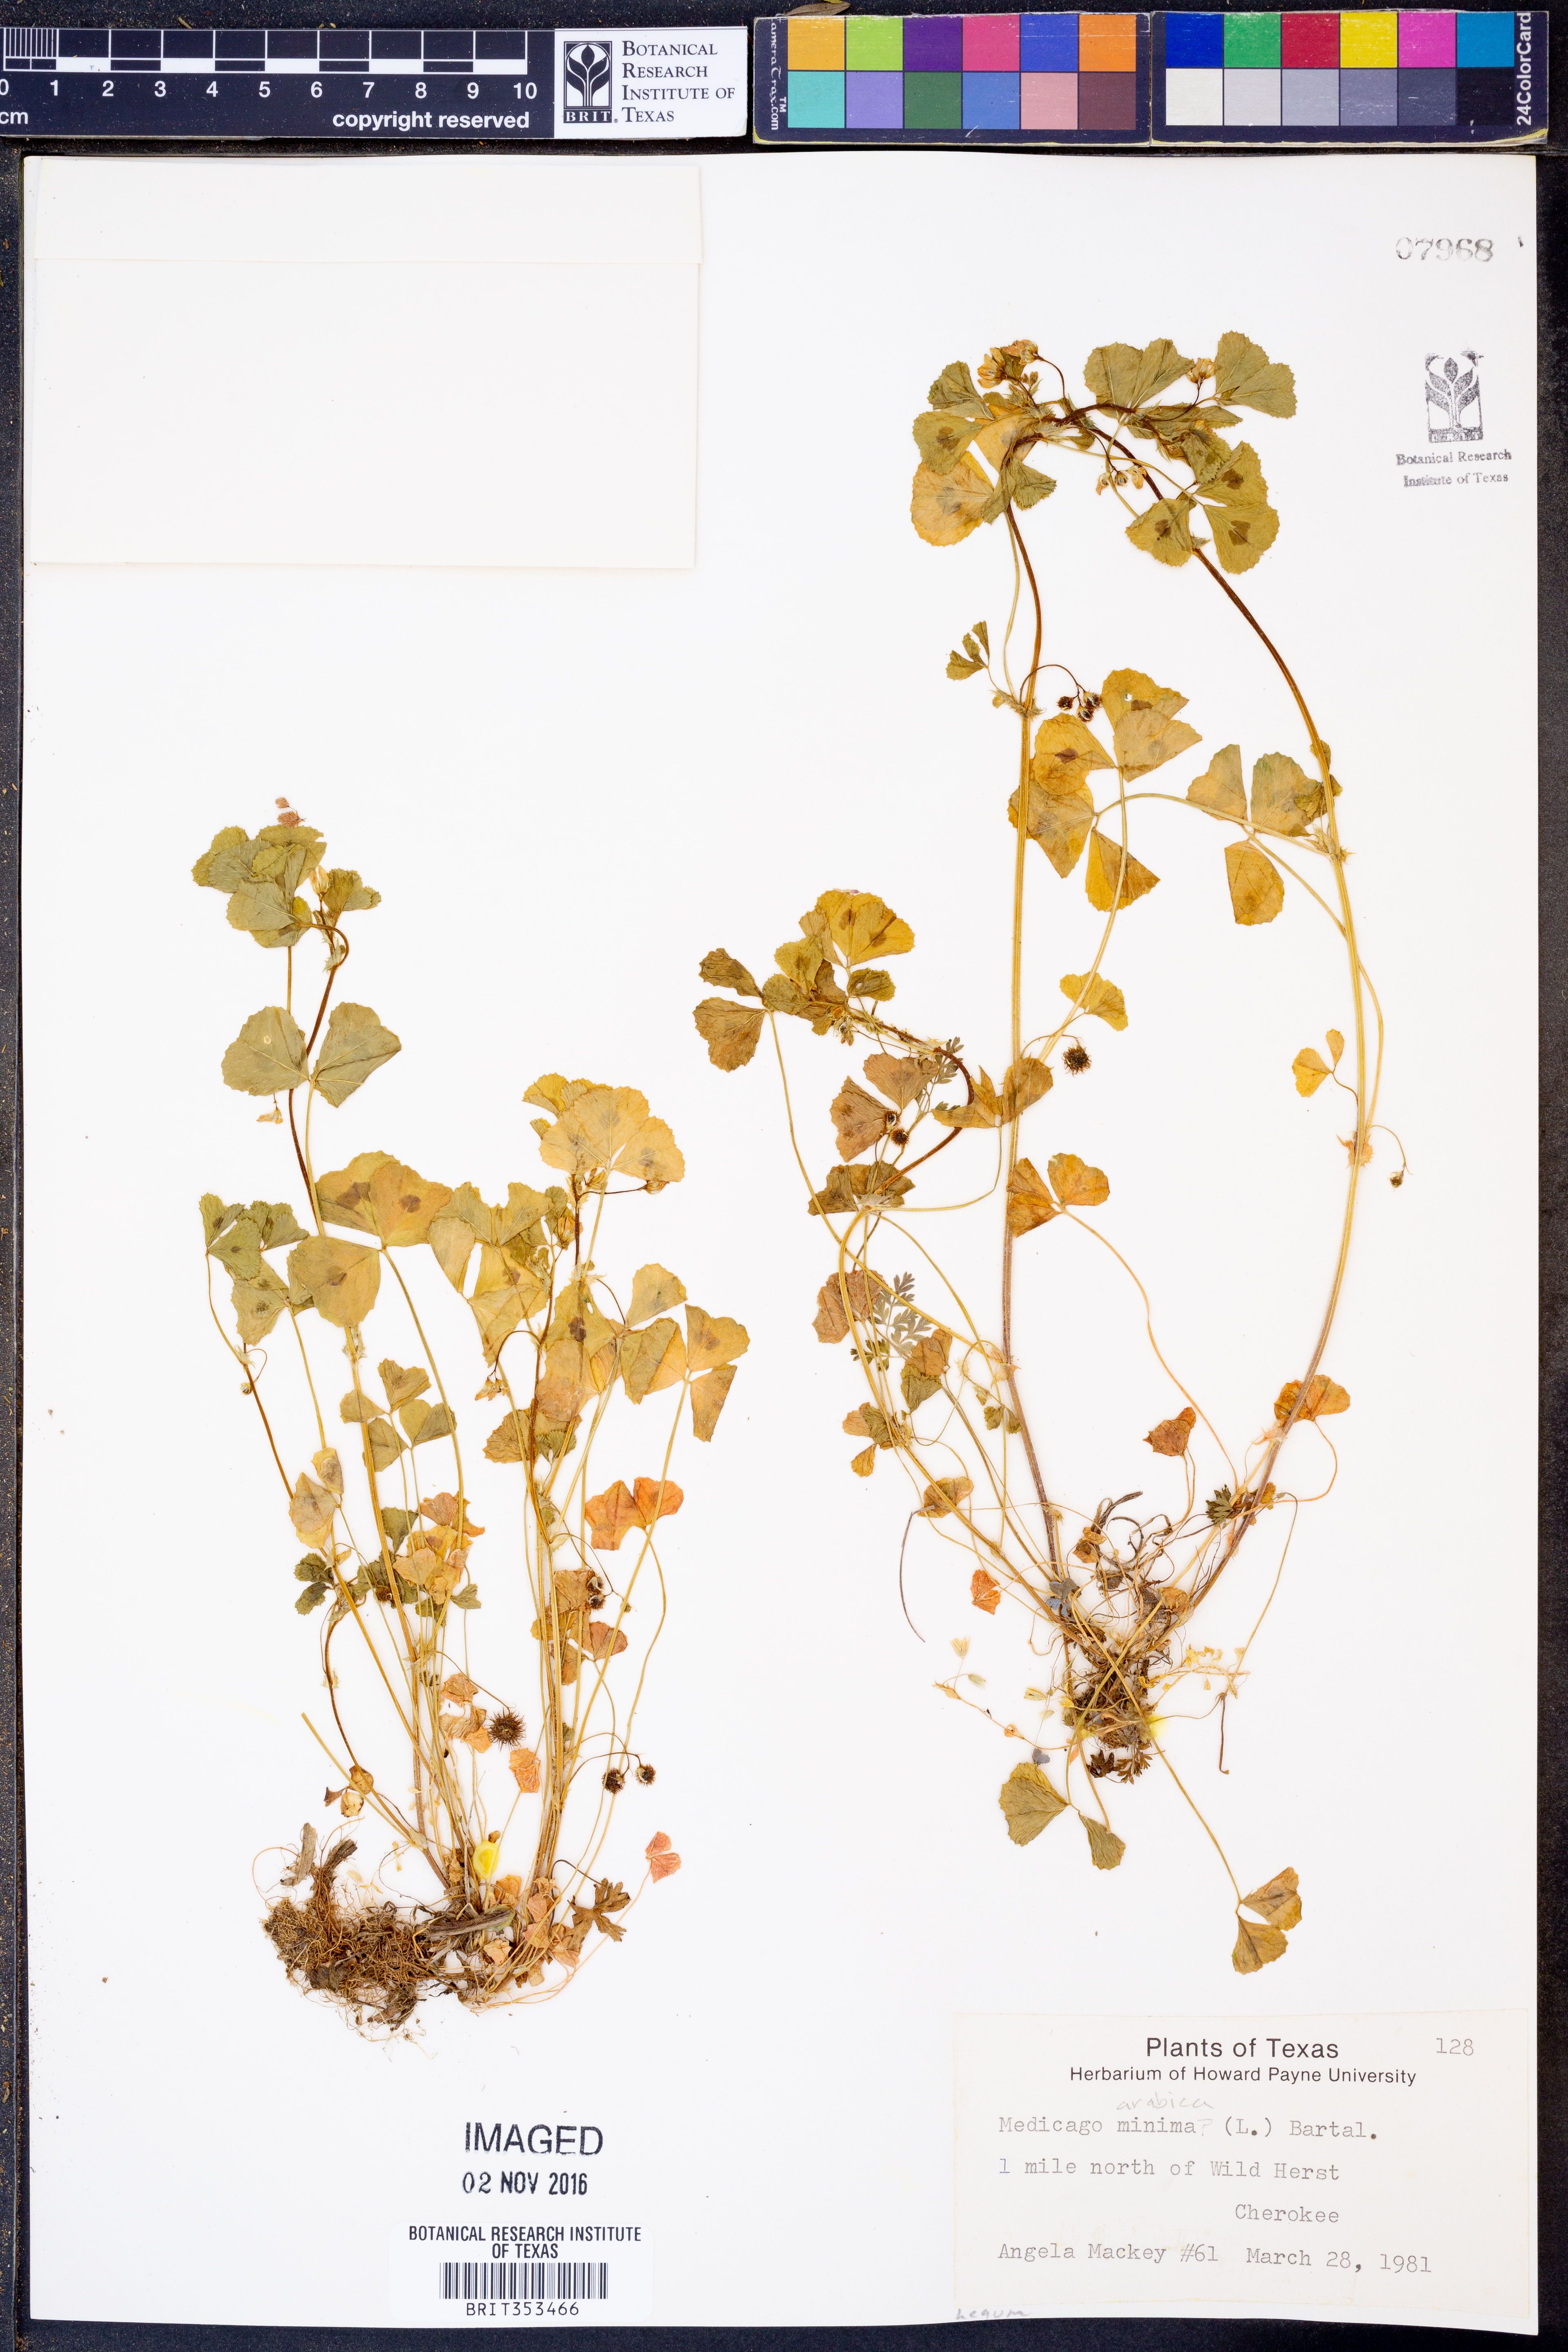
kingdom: Plantae
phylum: Tracheophyta
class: Magnoliopsida
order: Fabales
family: Fabaceae
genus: Medicago
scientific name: Medicago arabica
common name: Spotted medick
